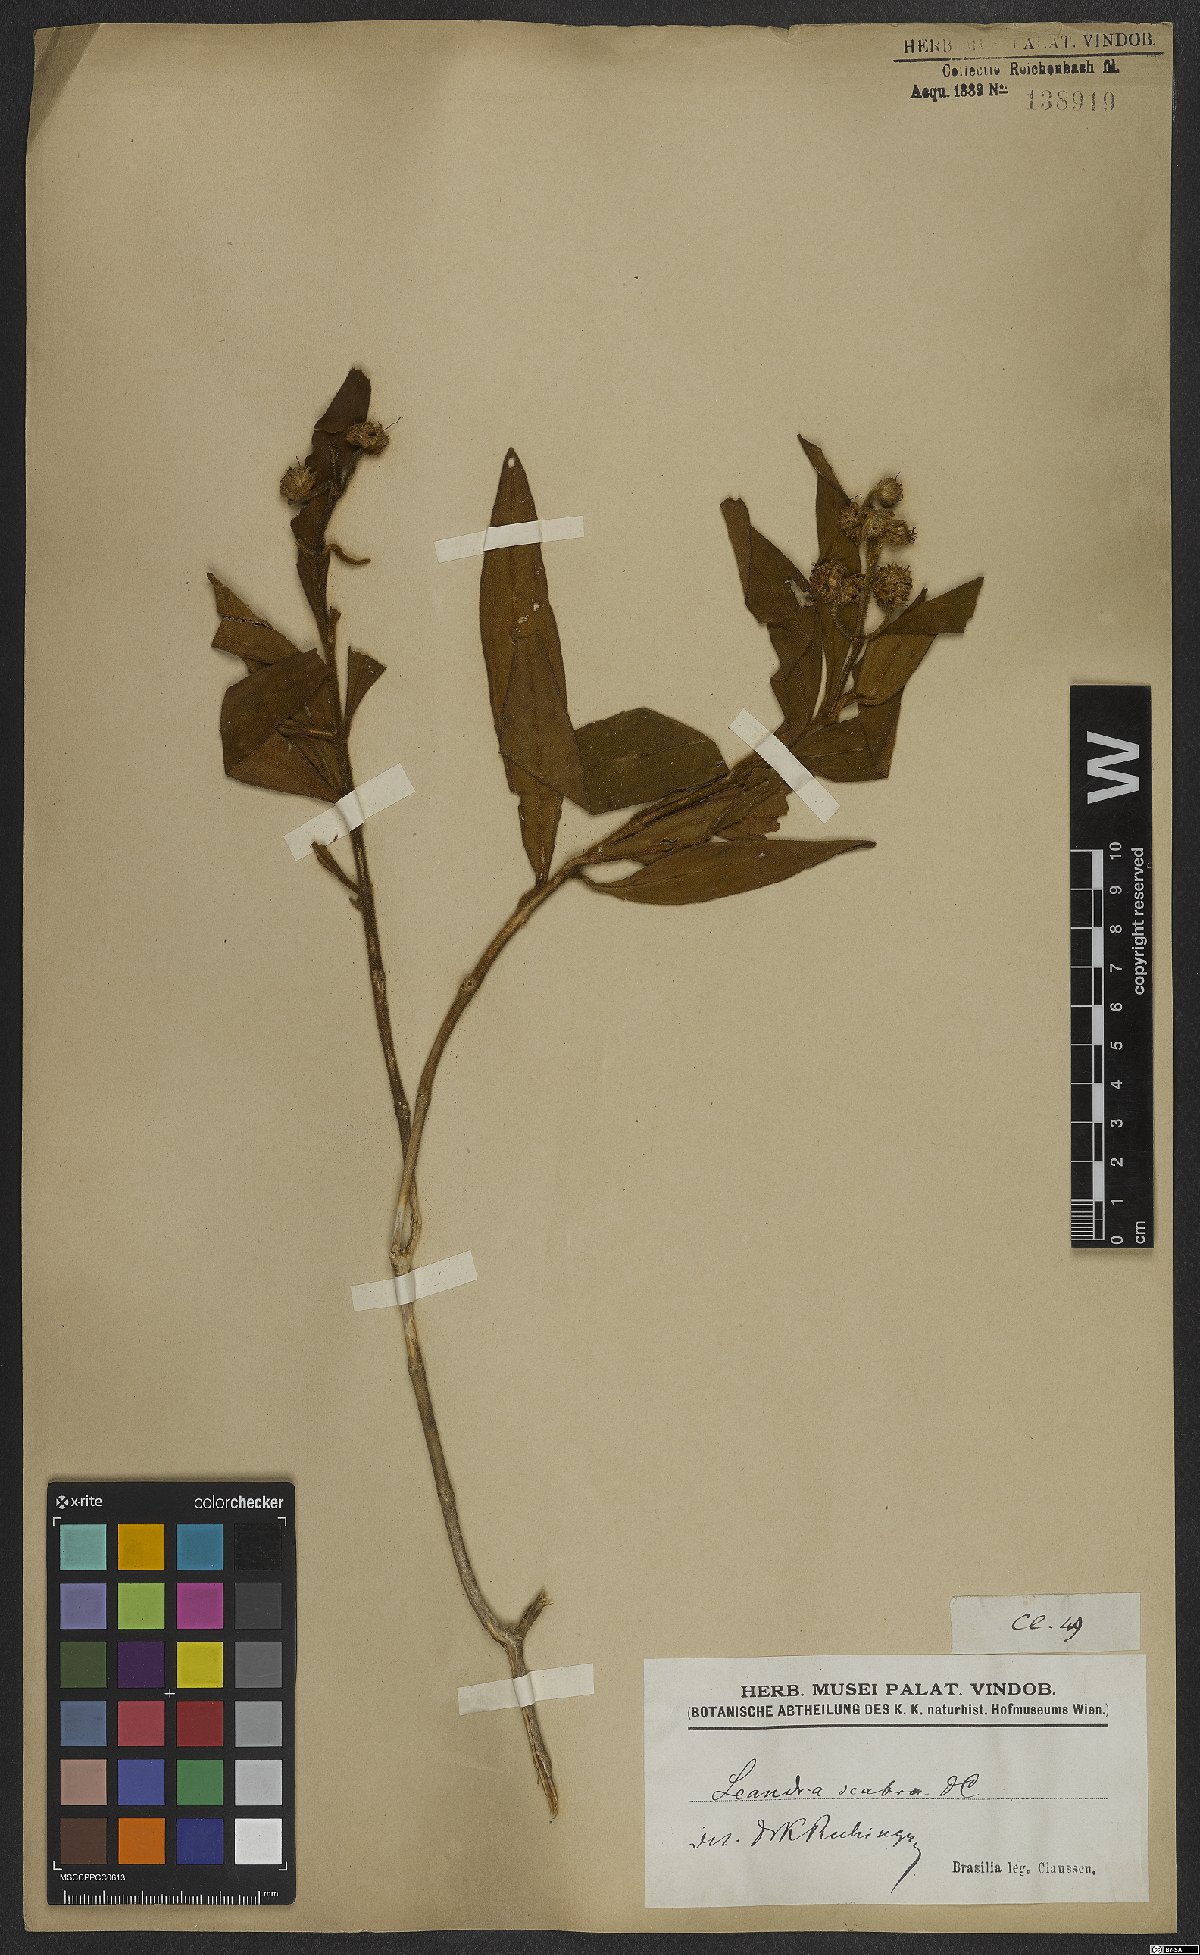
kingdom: Plantae
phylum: Tracheophyta
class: Magnoliopsida
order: Myrtales
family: Melastomataceae
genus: Miconia
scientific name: Miconia melastomoides
